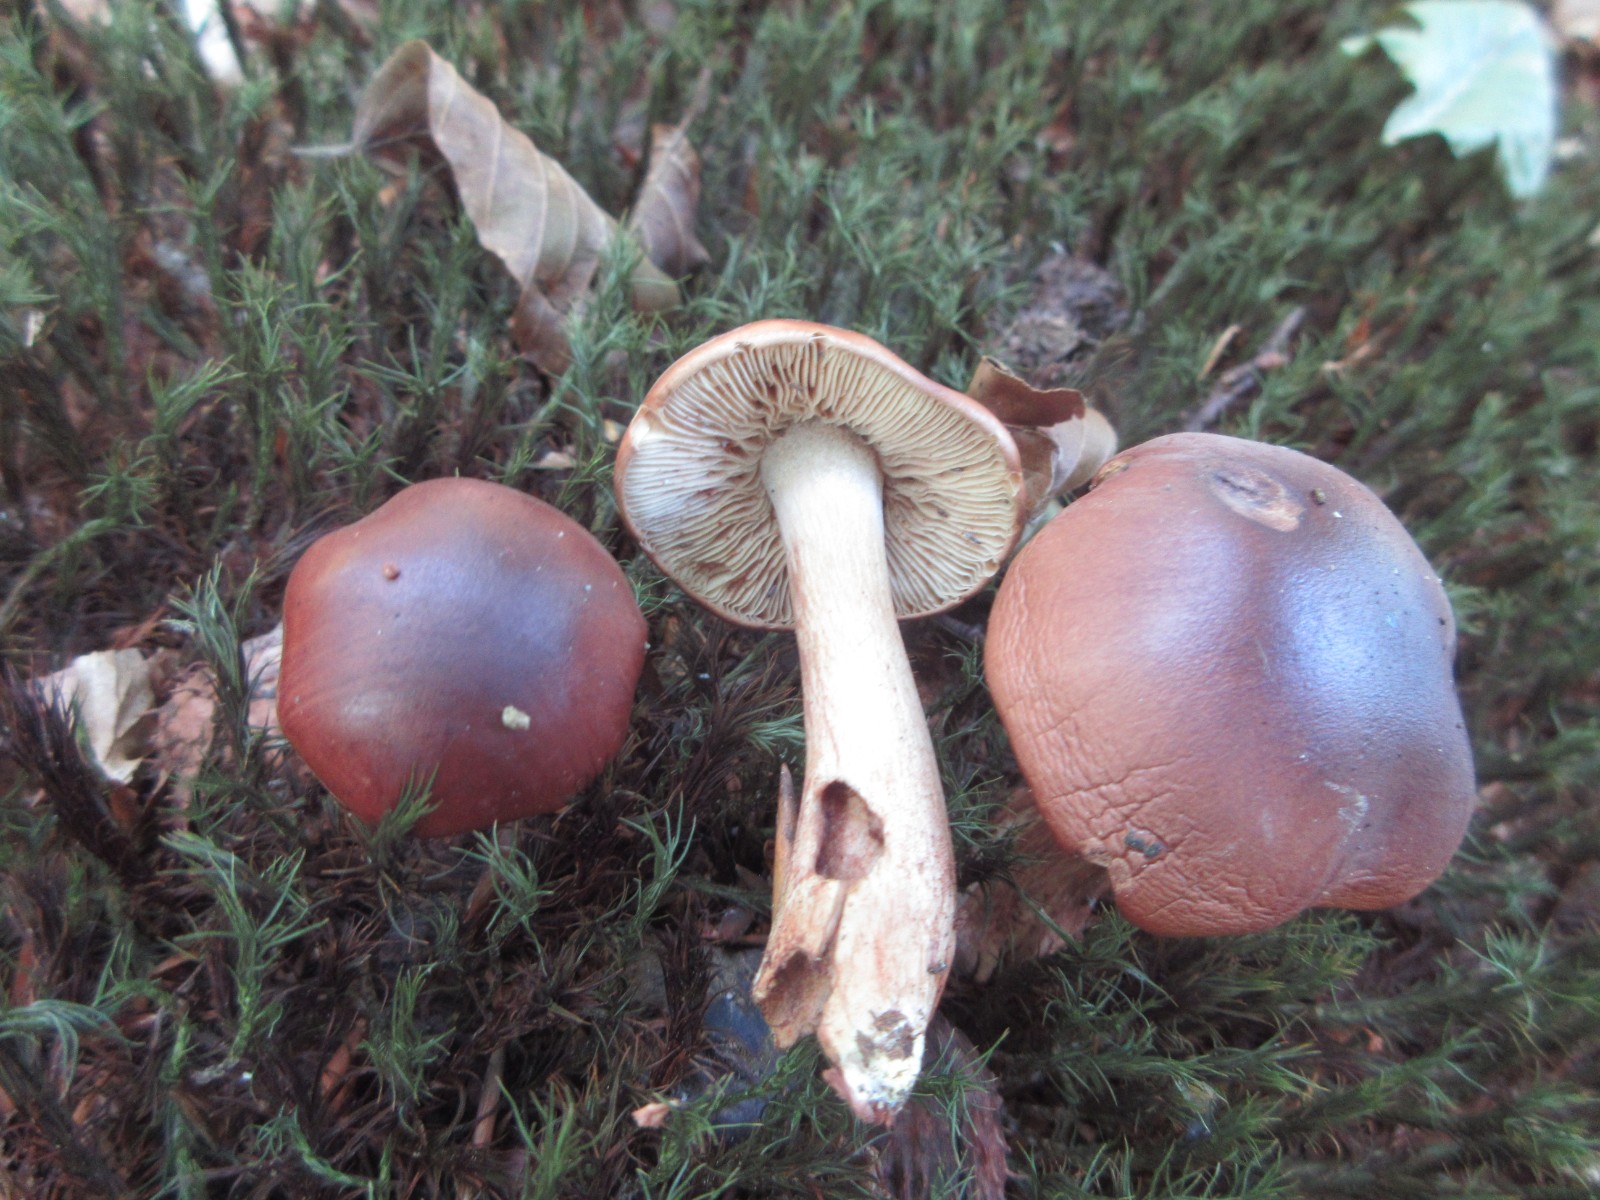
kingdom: Fungi
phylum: Basidiomycota
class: Agaricomycetes
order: Agaricales
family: Tricholomataceae
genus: Tricholoma
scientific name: Tricholoma ustale
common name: sveden ridderhat
